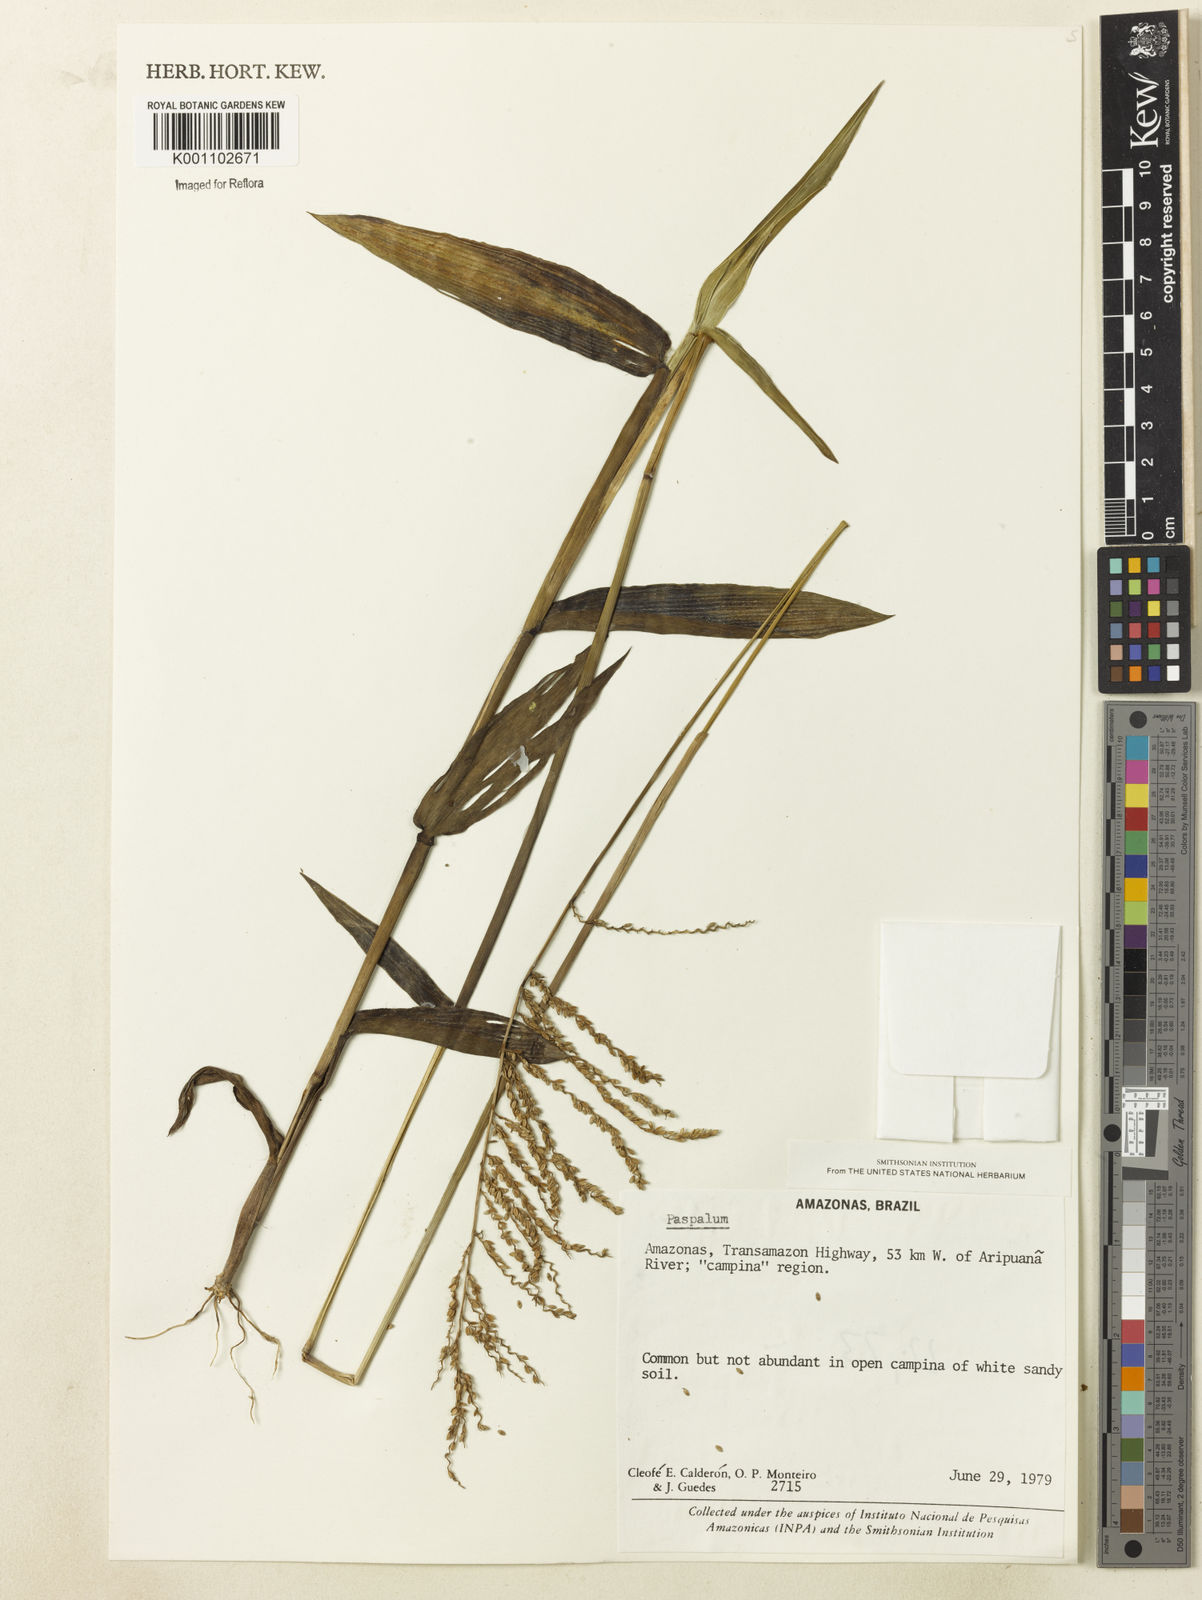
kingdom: Plantae
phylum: Tracheophyta
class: Liliopsida
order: Poales
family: Poaceae
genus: Paspalum
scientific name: Paspalum
